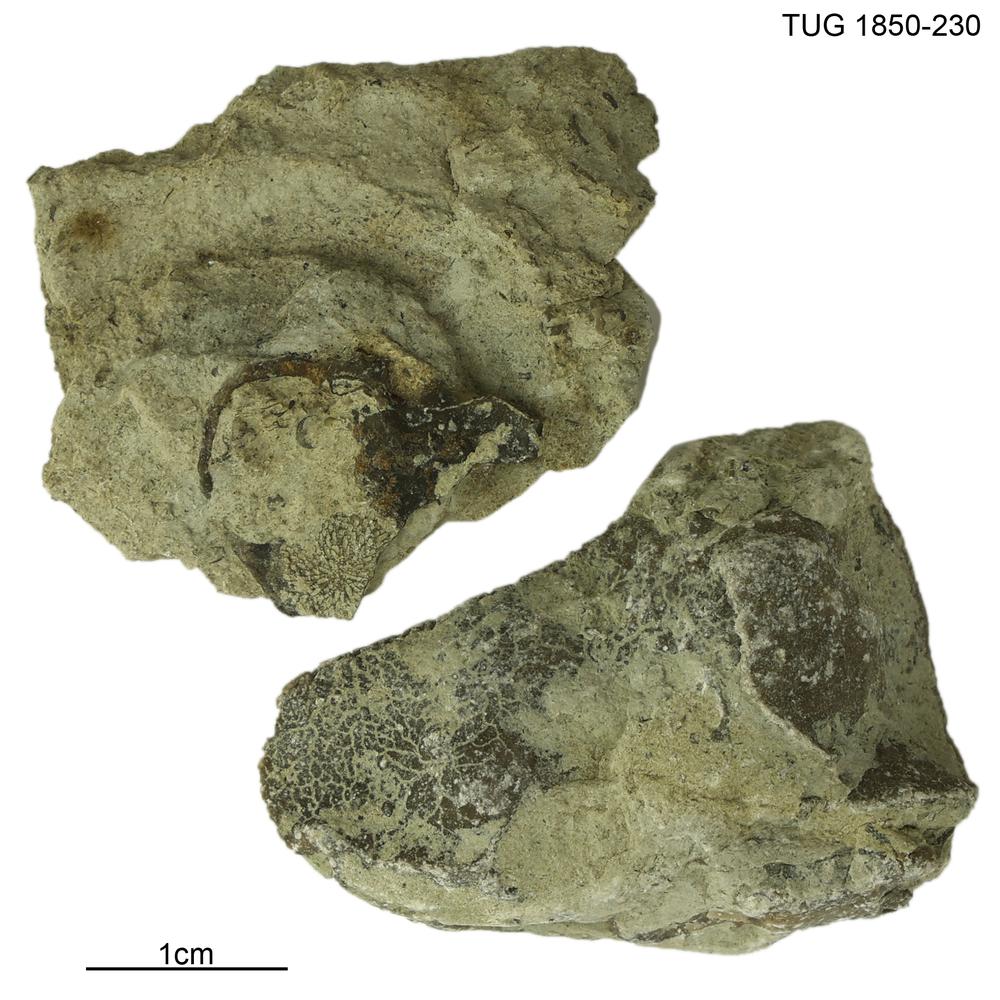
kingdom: Animalia
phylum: Porifera
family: Pseudolabechiidae
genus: Pseudolabechia
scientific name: Pseudolabechia
